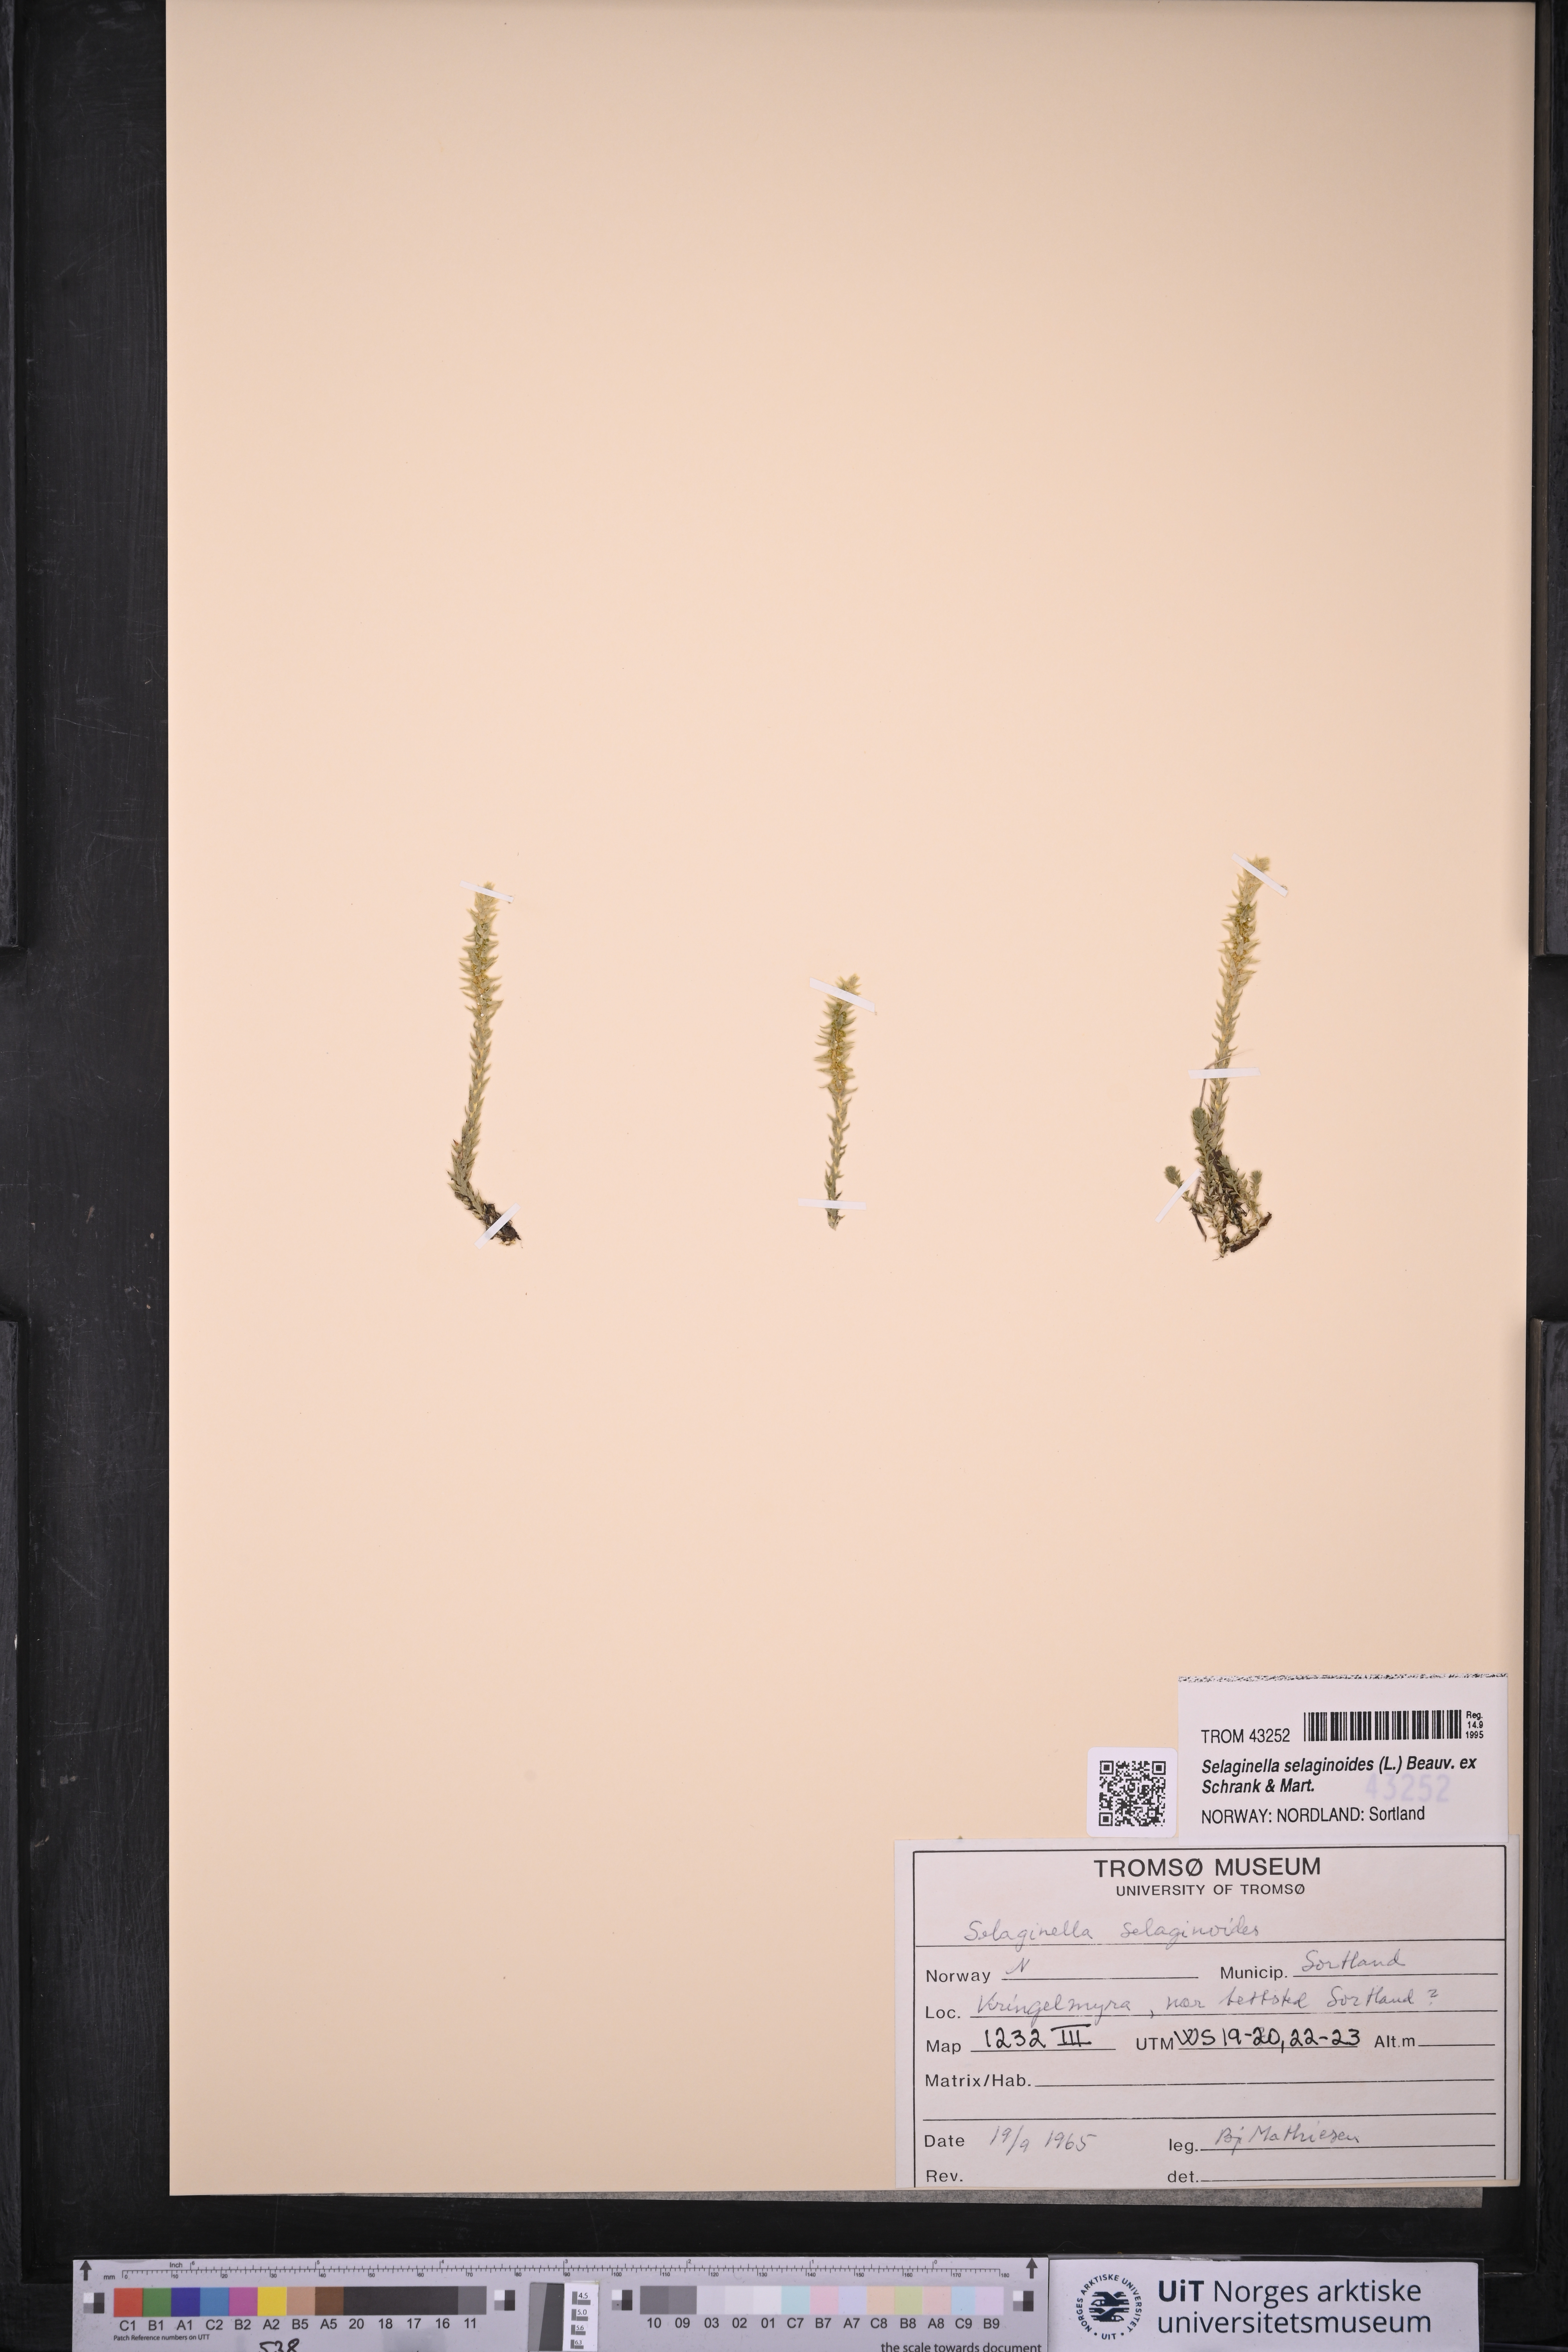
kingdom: Plantae
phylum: Tracheophyta
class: Lycopodiopsida
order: Selaginellales
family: Selaginellaceae
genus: Selaginella
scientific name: Selaginella selaginoides
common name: Prickly mountain-moss
